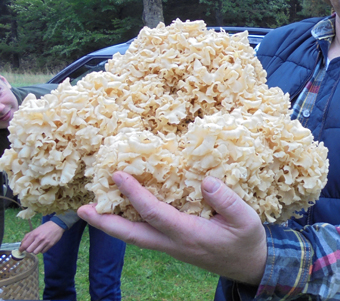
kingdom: Fungi
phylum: Basidiomycota
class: Agaricomycetes
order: Polyporales
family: Sparassidaceae
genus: Sparassis
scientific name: Sparassis crispa
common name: kruset blomkålssvamp
